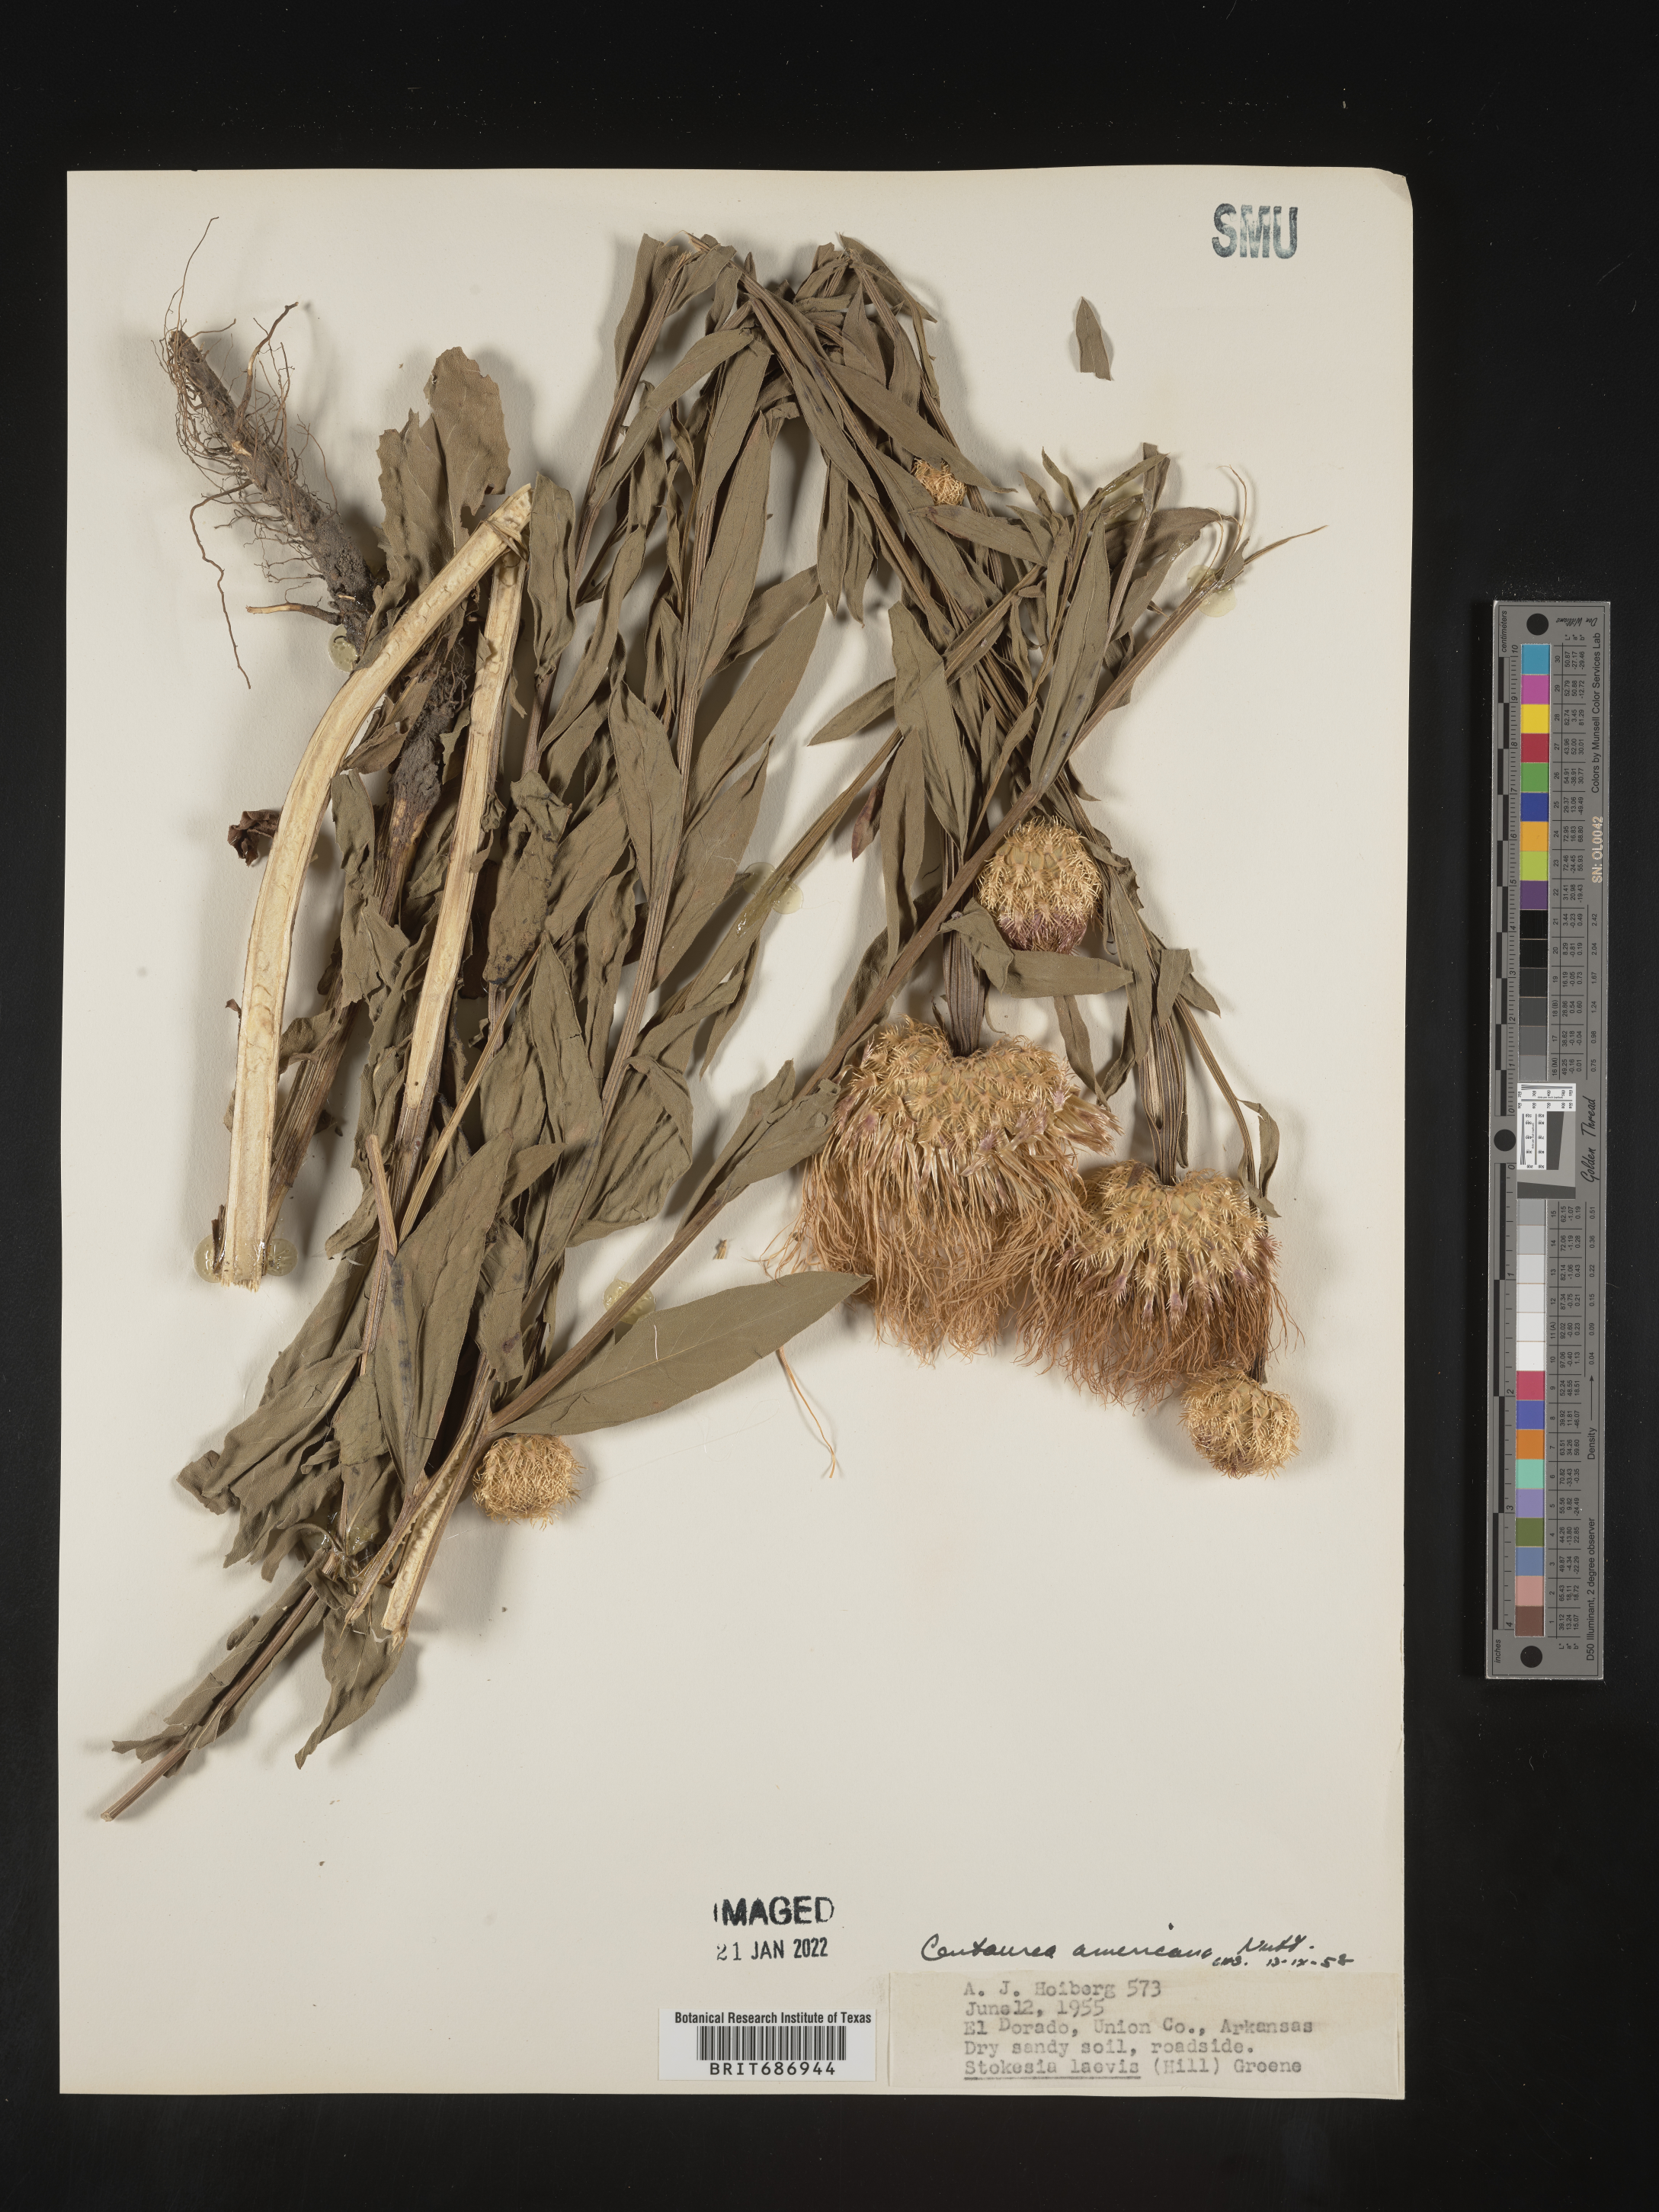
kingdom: Plantae
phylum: Tracheophyta
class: Magnoliopsida
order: Asterales
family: Asteraceae
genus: Plectocephalus
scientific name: Plectocephalus americanus
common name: American basket-flower
